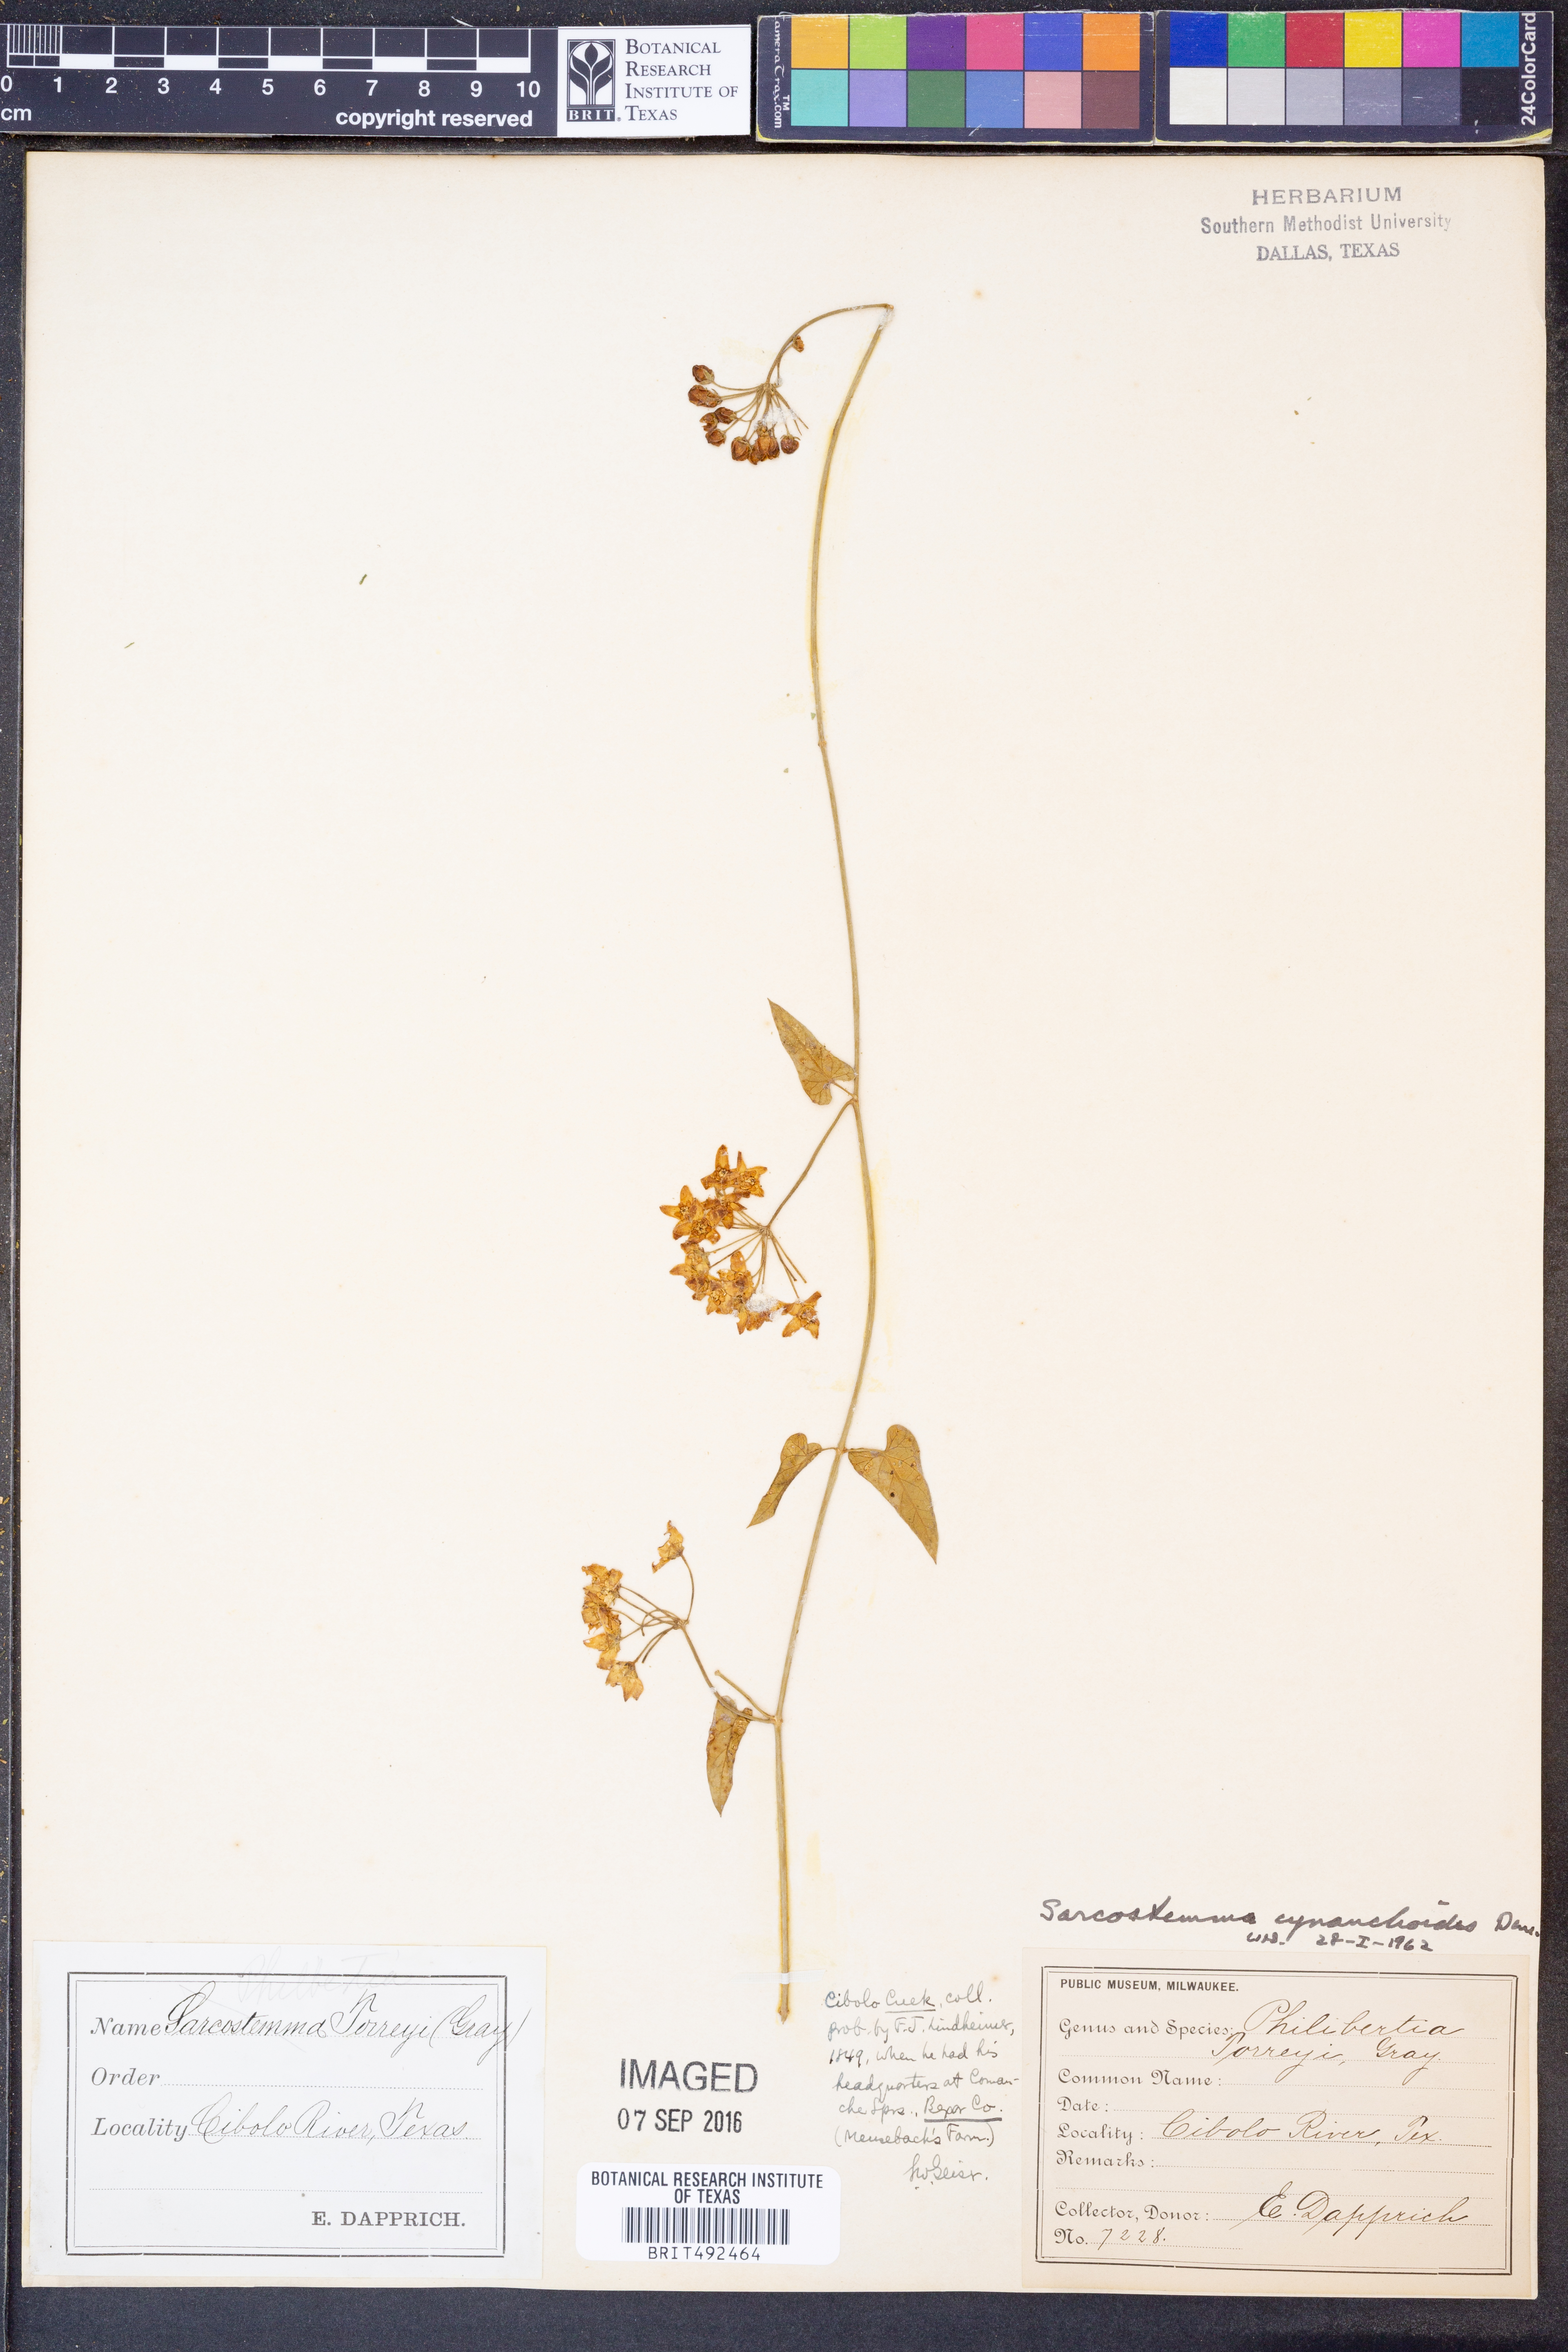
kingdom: Plantae
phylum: Tracheophyta
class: Magnoliopsida
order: Gentianales
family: Apocynaceae
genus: Funastrum
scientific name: Funastrum cynanchoides
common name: Climbing-milkweed
